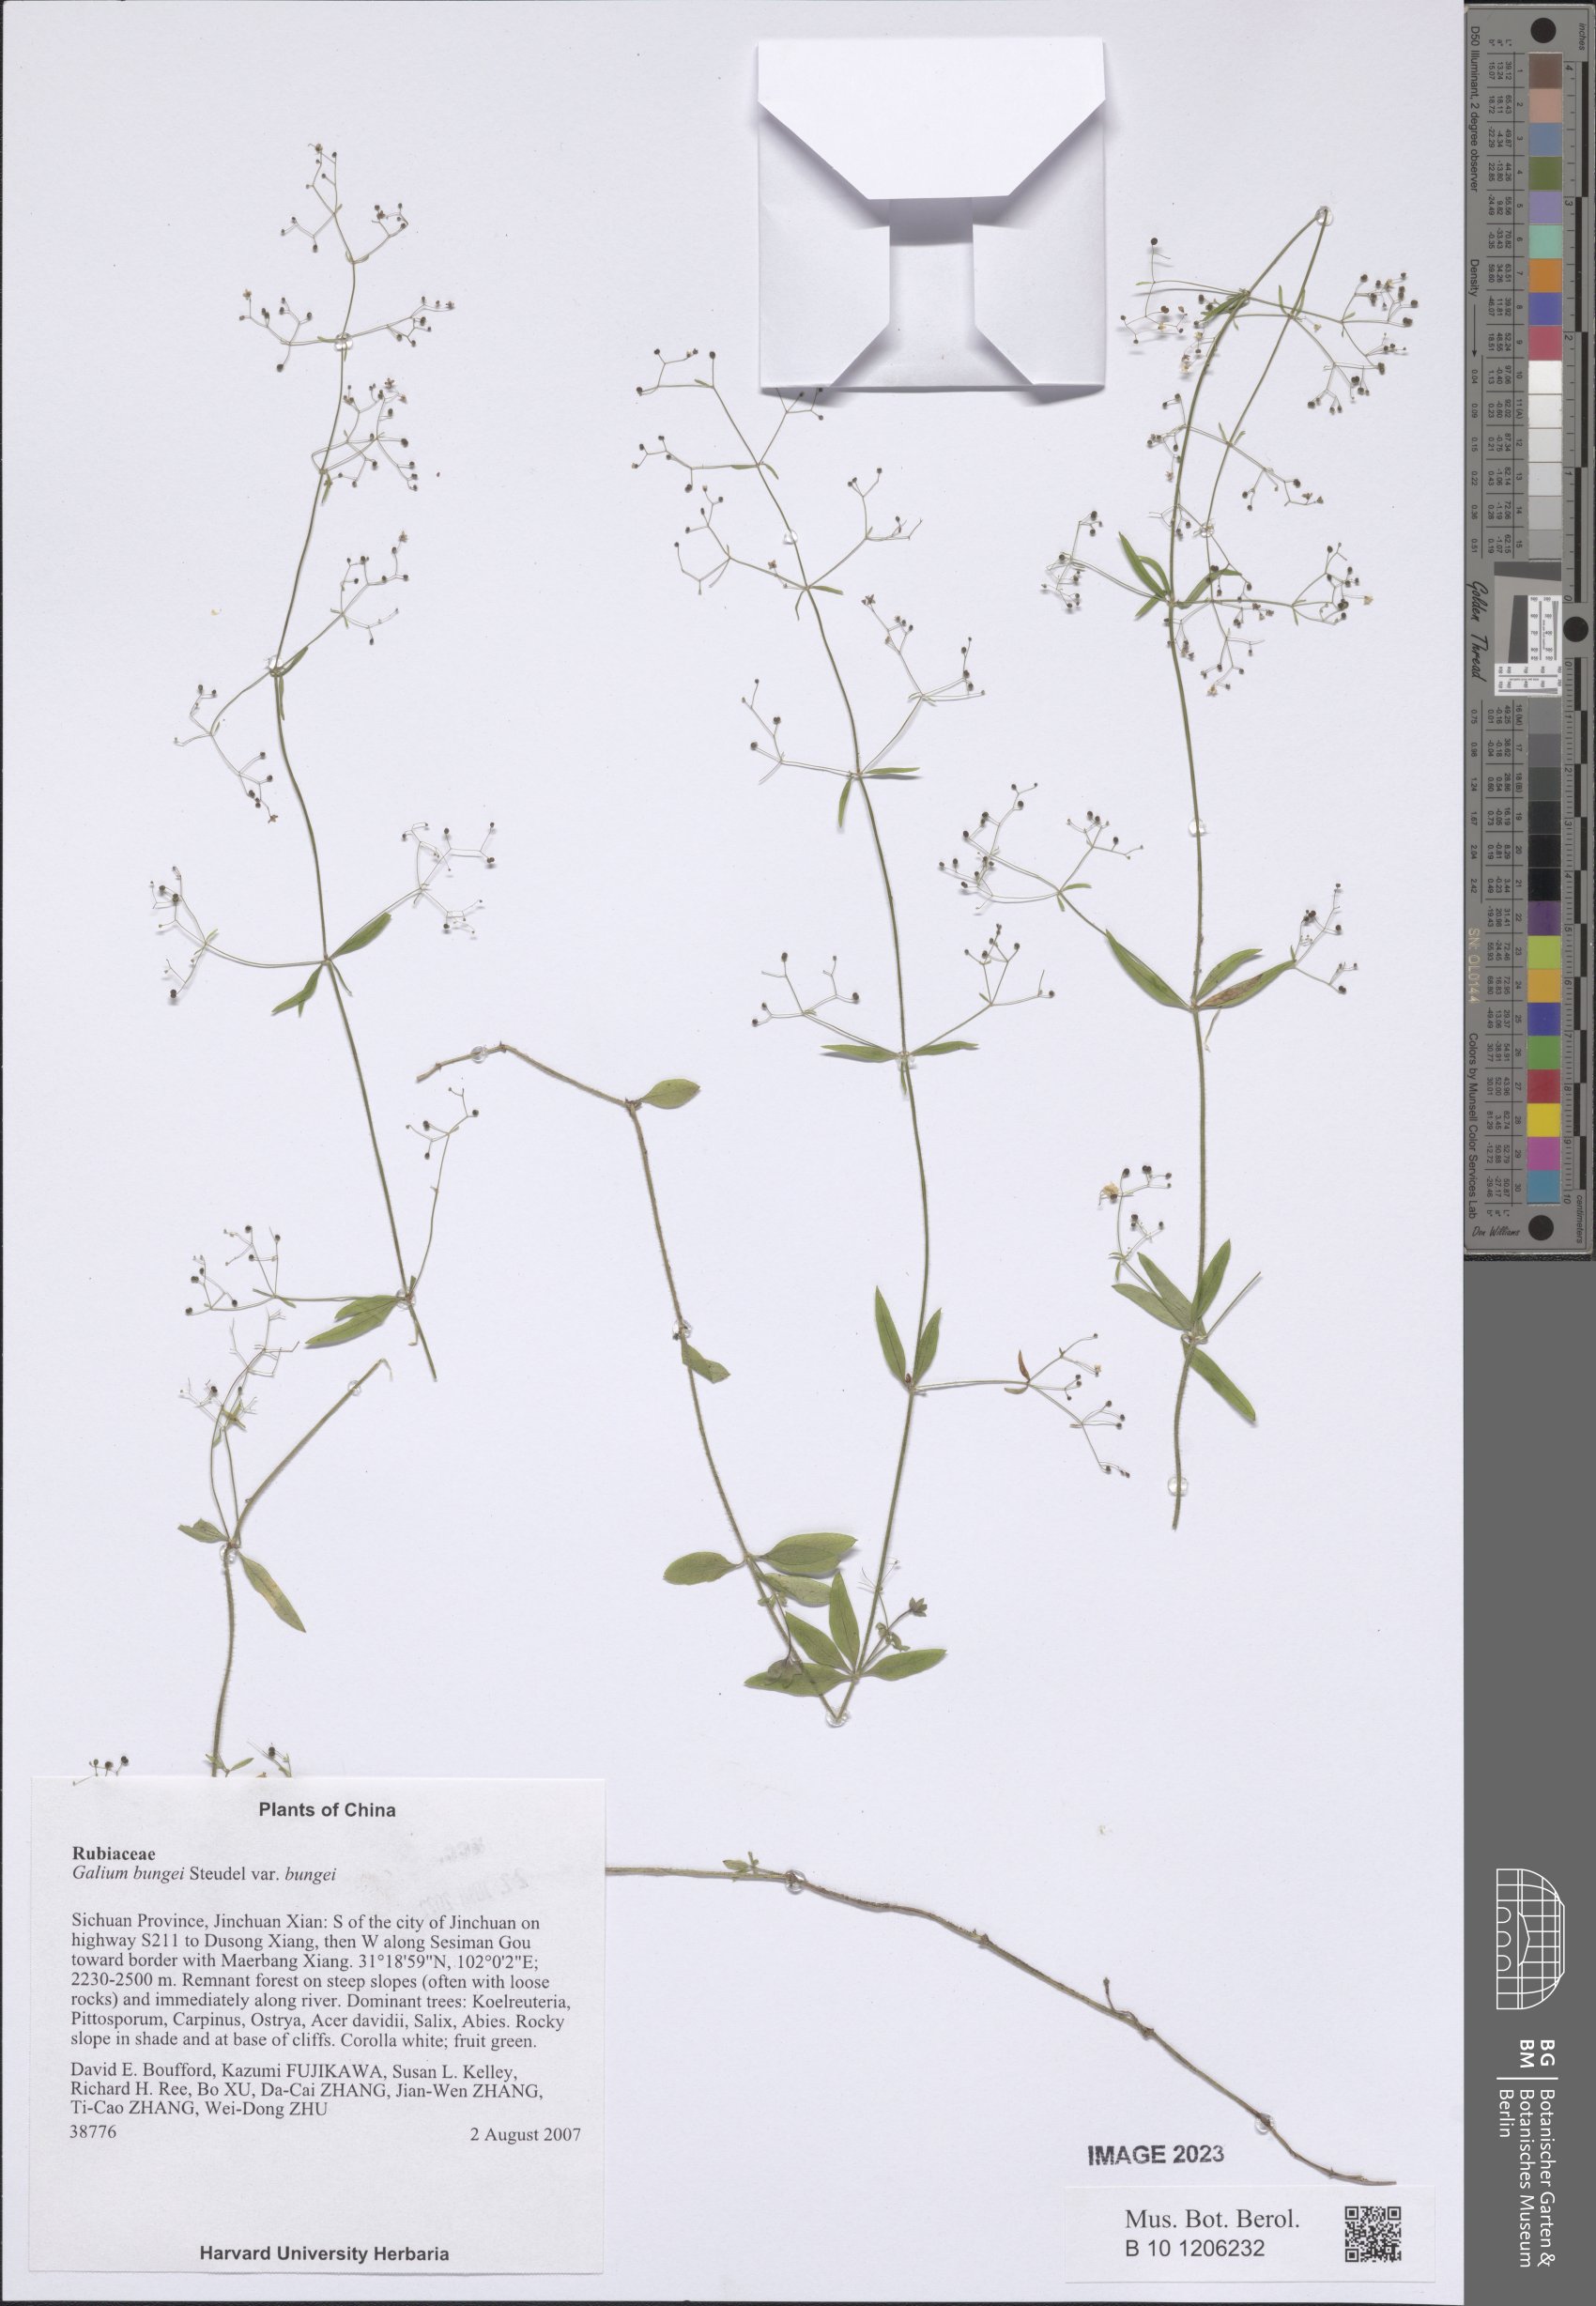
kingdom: Plantae
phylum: Tracheophyta
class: Magnoliopsida
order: Gentianales
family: Rubiaceae
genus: Galium
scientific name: Galium bungei
